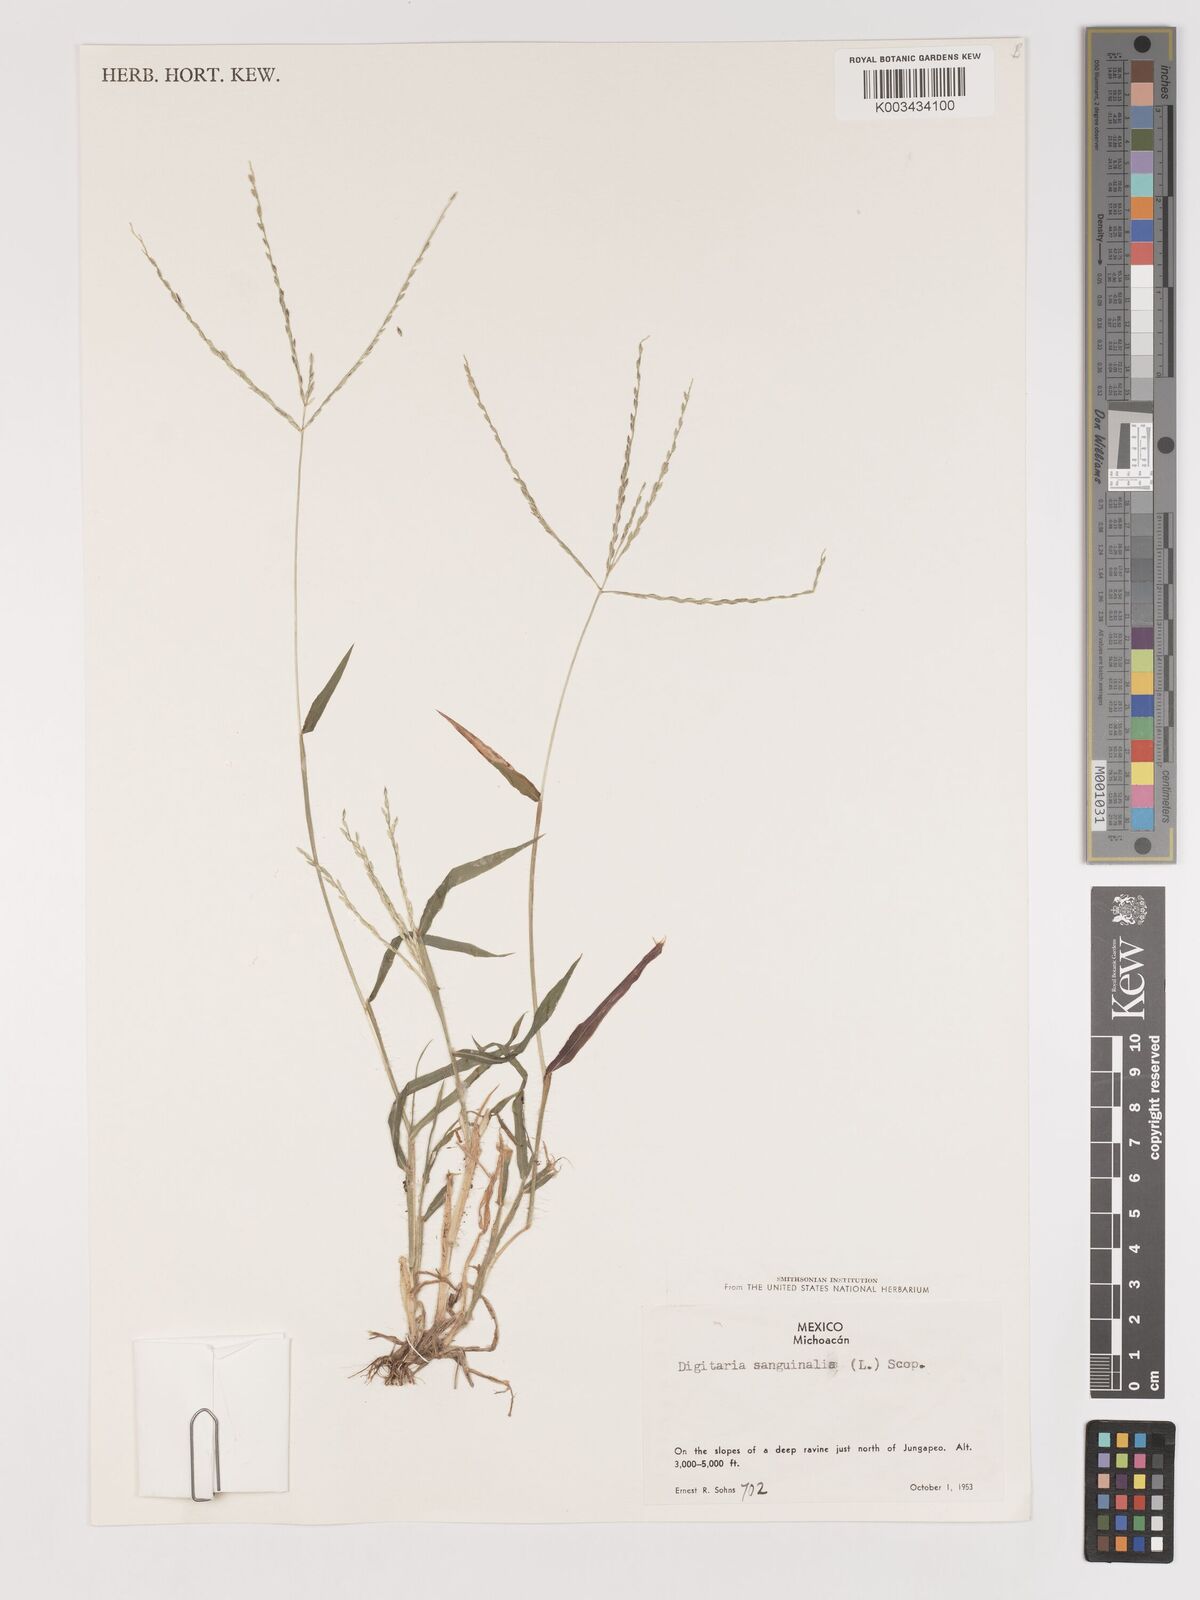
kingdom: Plantae
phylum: Tracheophyta
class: Liliopsida
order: Poales
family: Poaceae
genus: Digitaria
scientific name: Digitaria sanguinalis
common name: Hairy crabgrass
